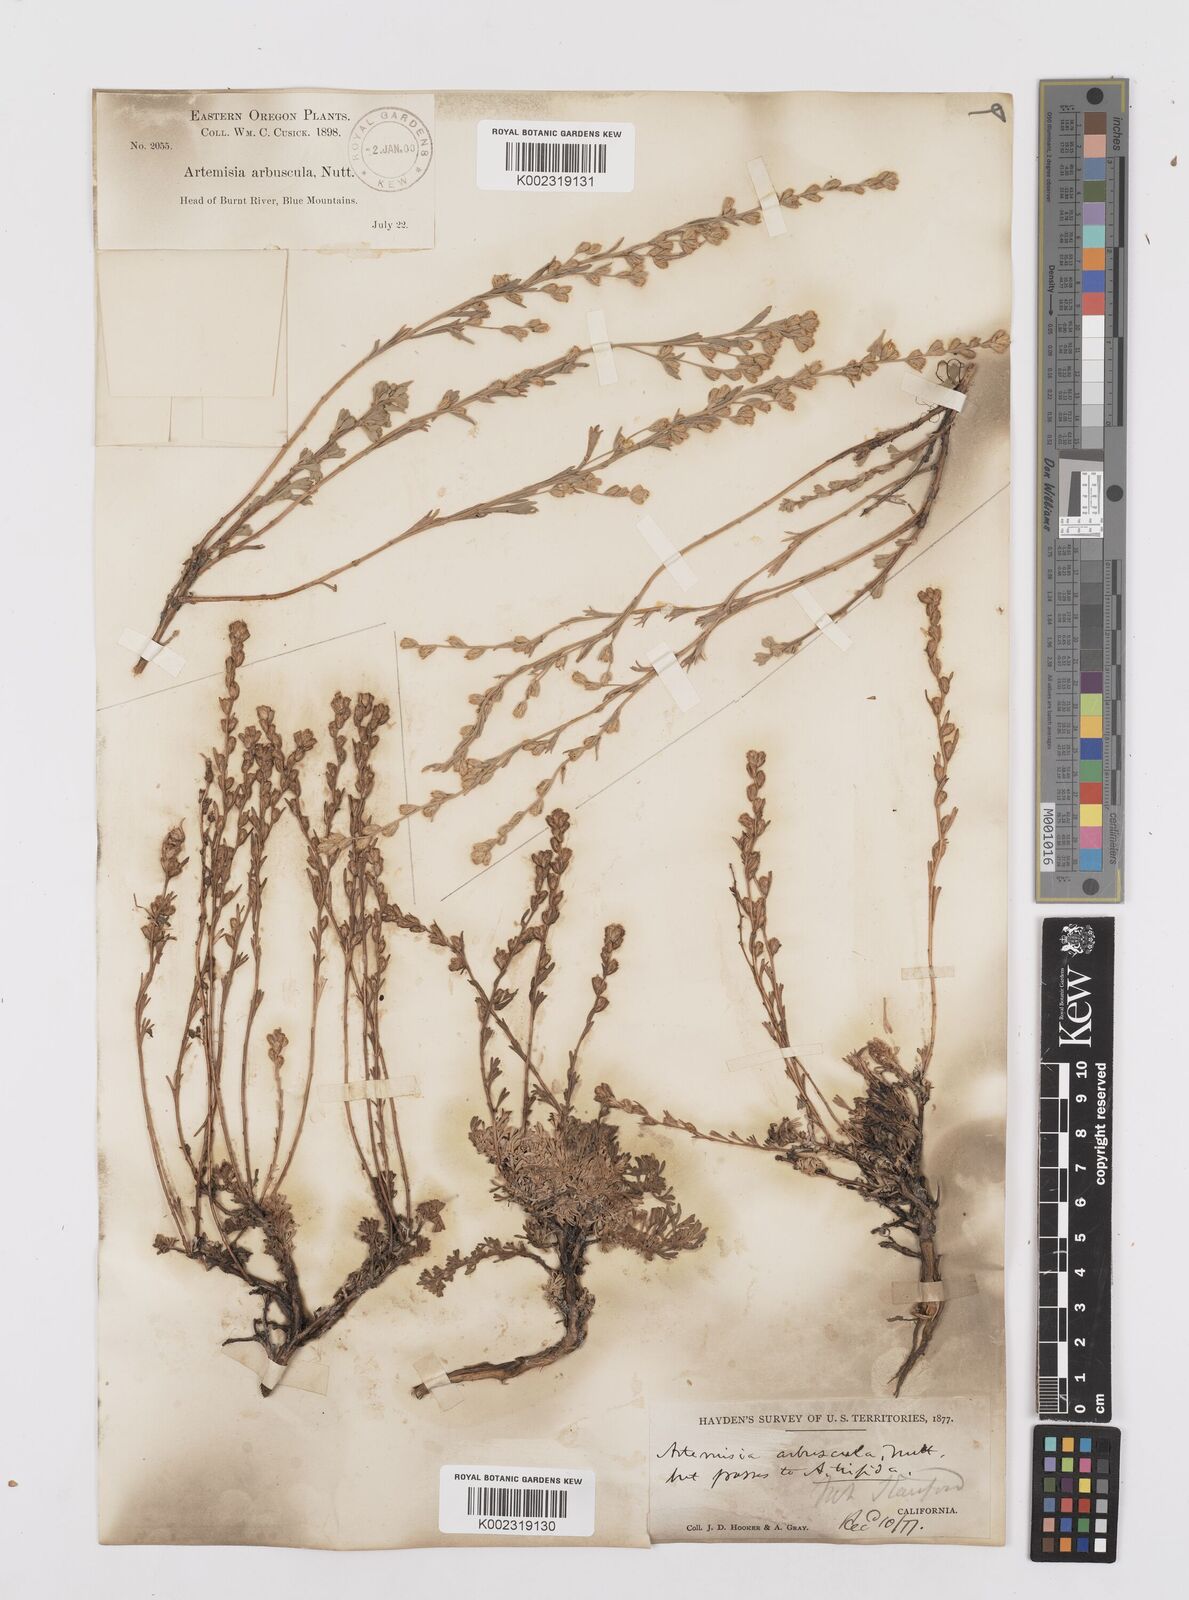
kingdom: Plantae
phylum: Tracheophyta
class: Magnoliopsida
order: Asterales
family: Asteraceae
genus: Artemisia
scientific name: Artemisia arbuscula
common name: Sagebrush
